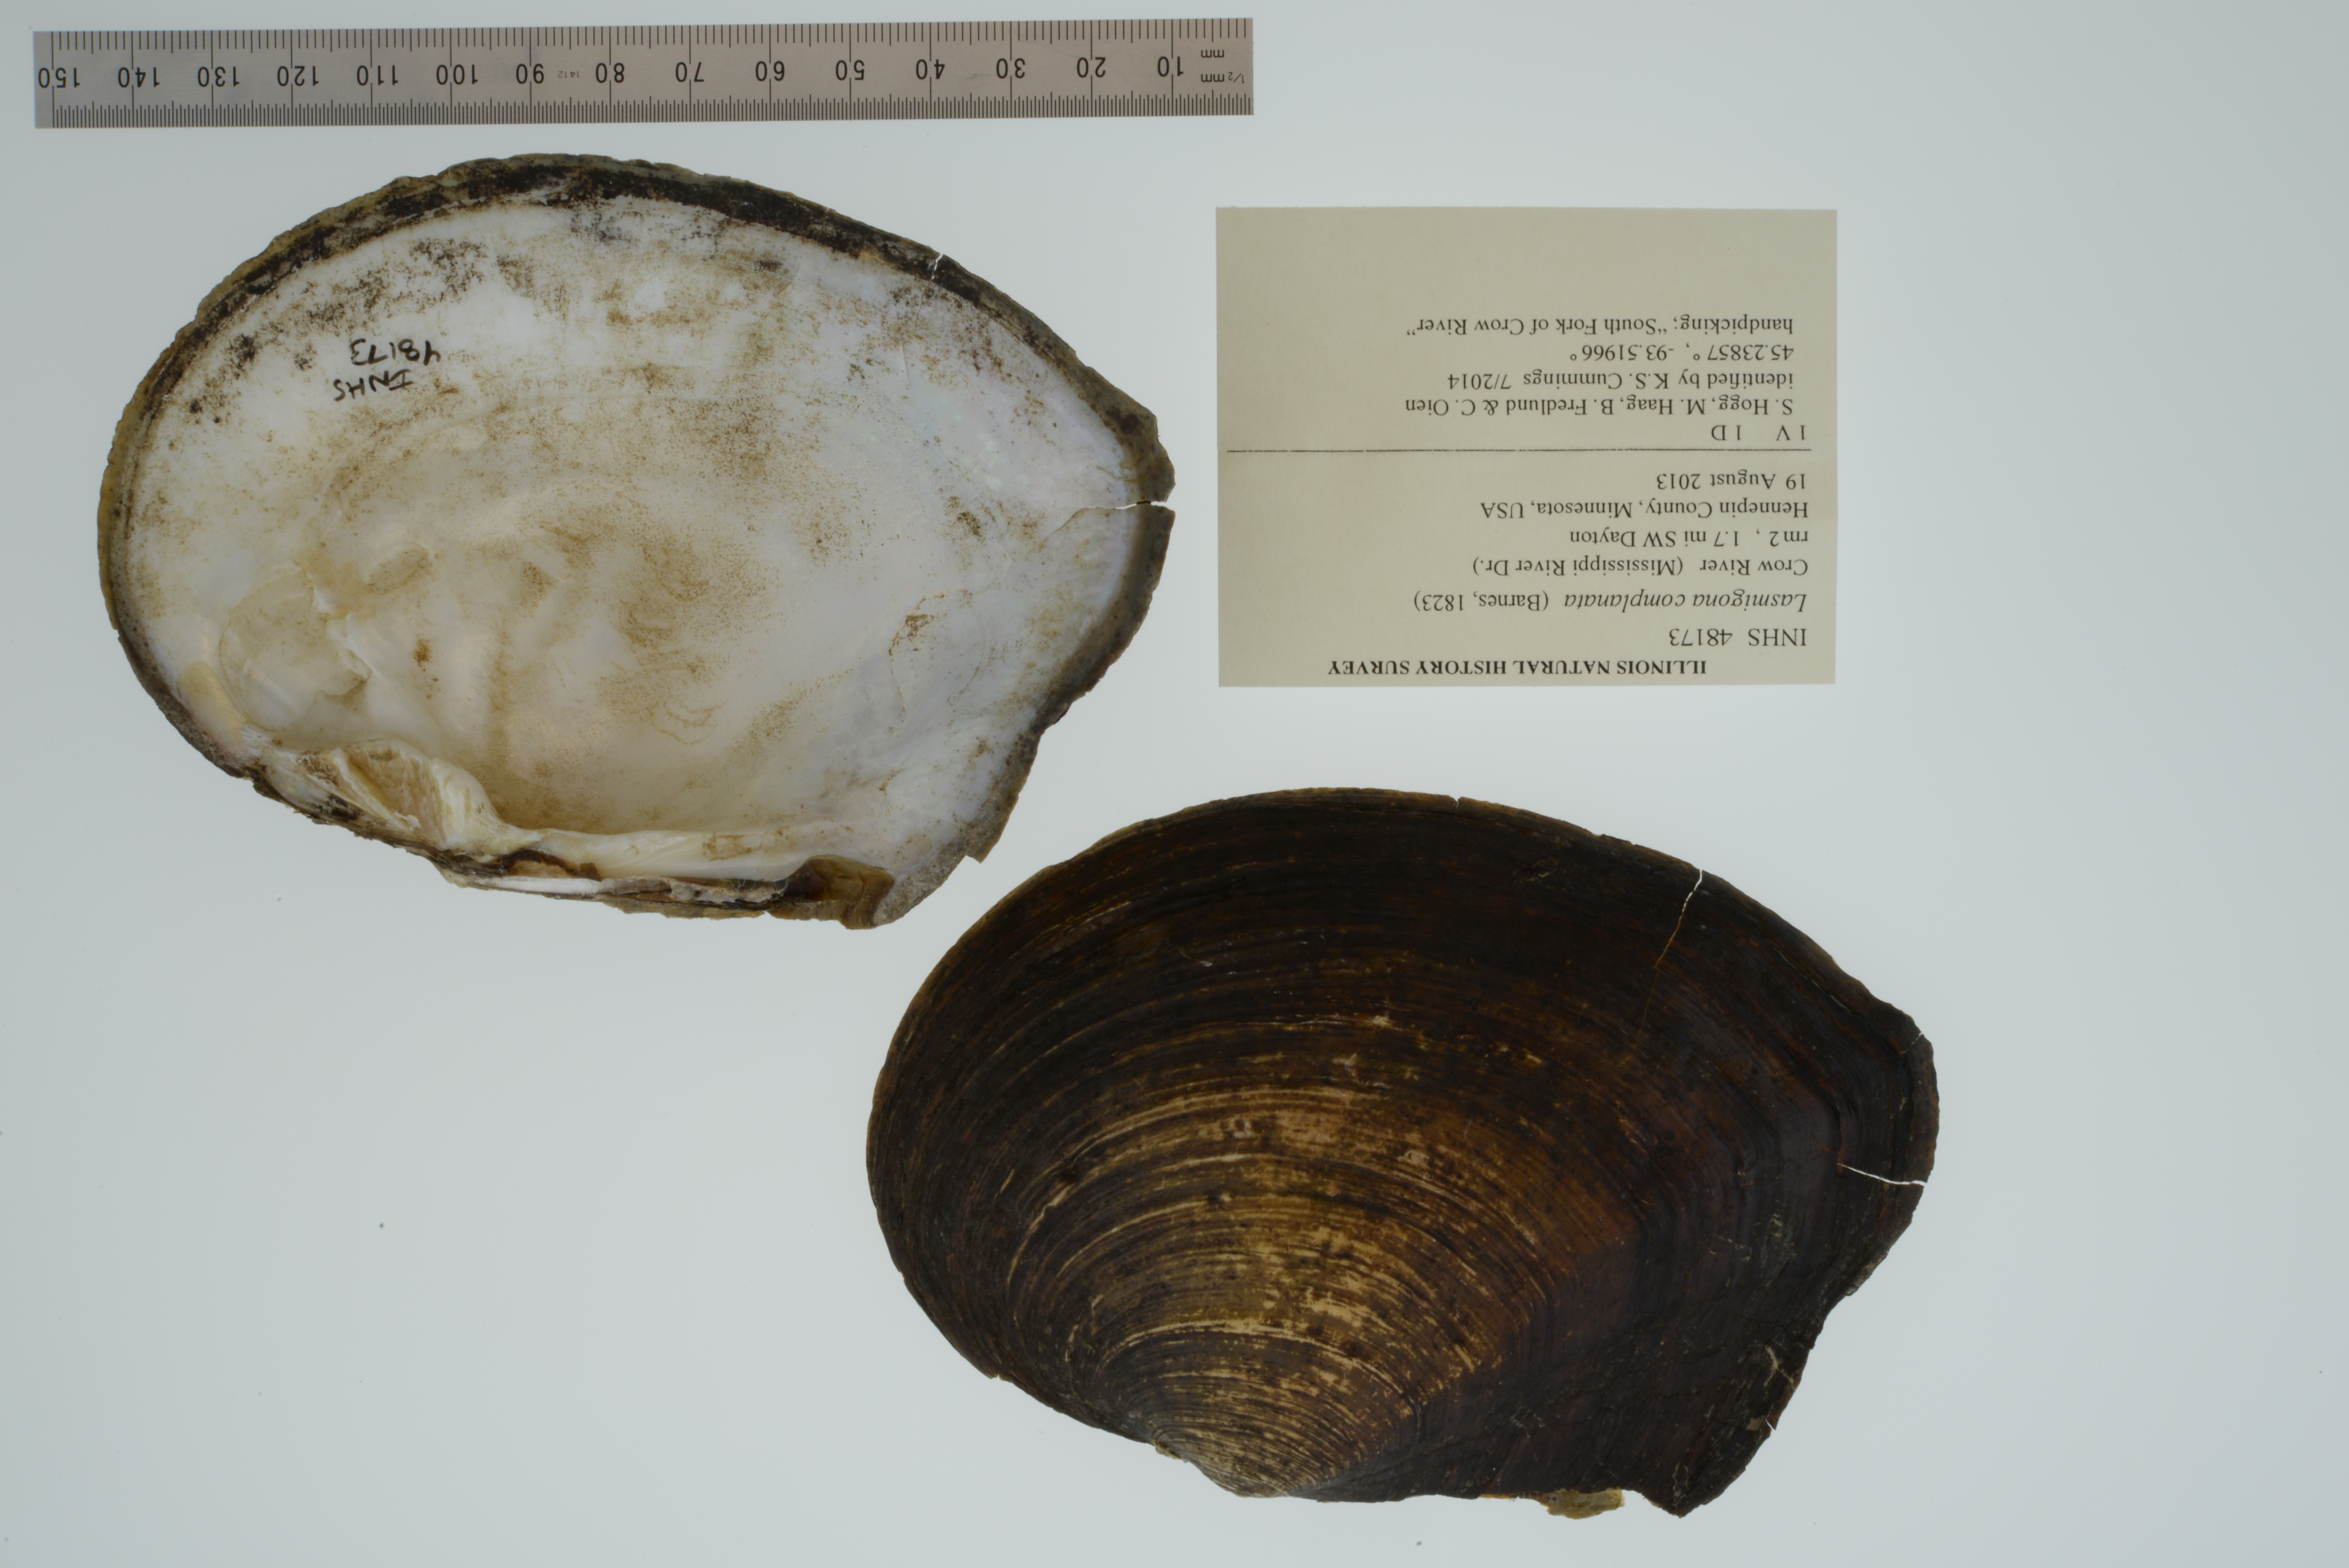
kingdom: Animalia
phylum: Mollusca
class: Bivalvia
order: Unionida
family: Unionidae
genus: Lasmigona
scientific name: Lasmigona complanata
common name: White heelsplitter
